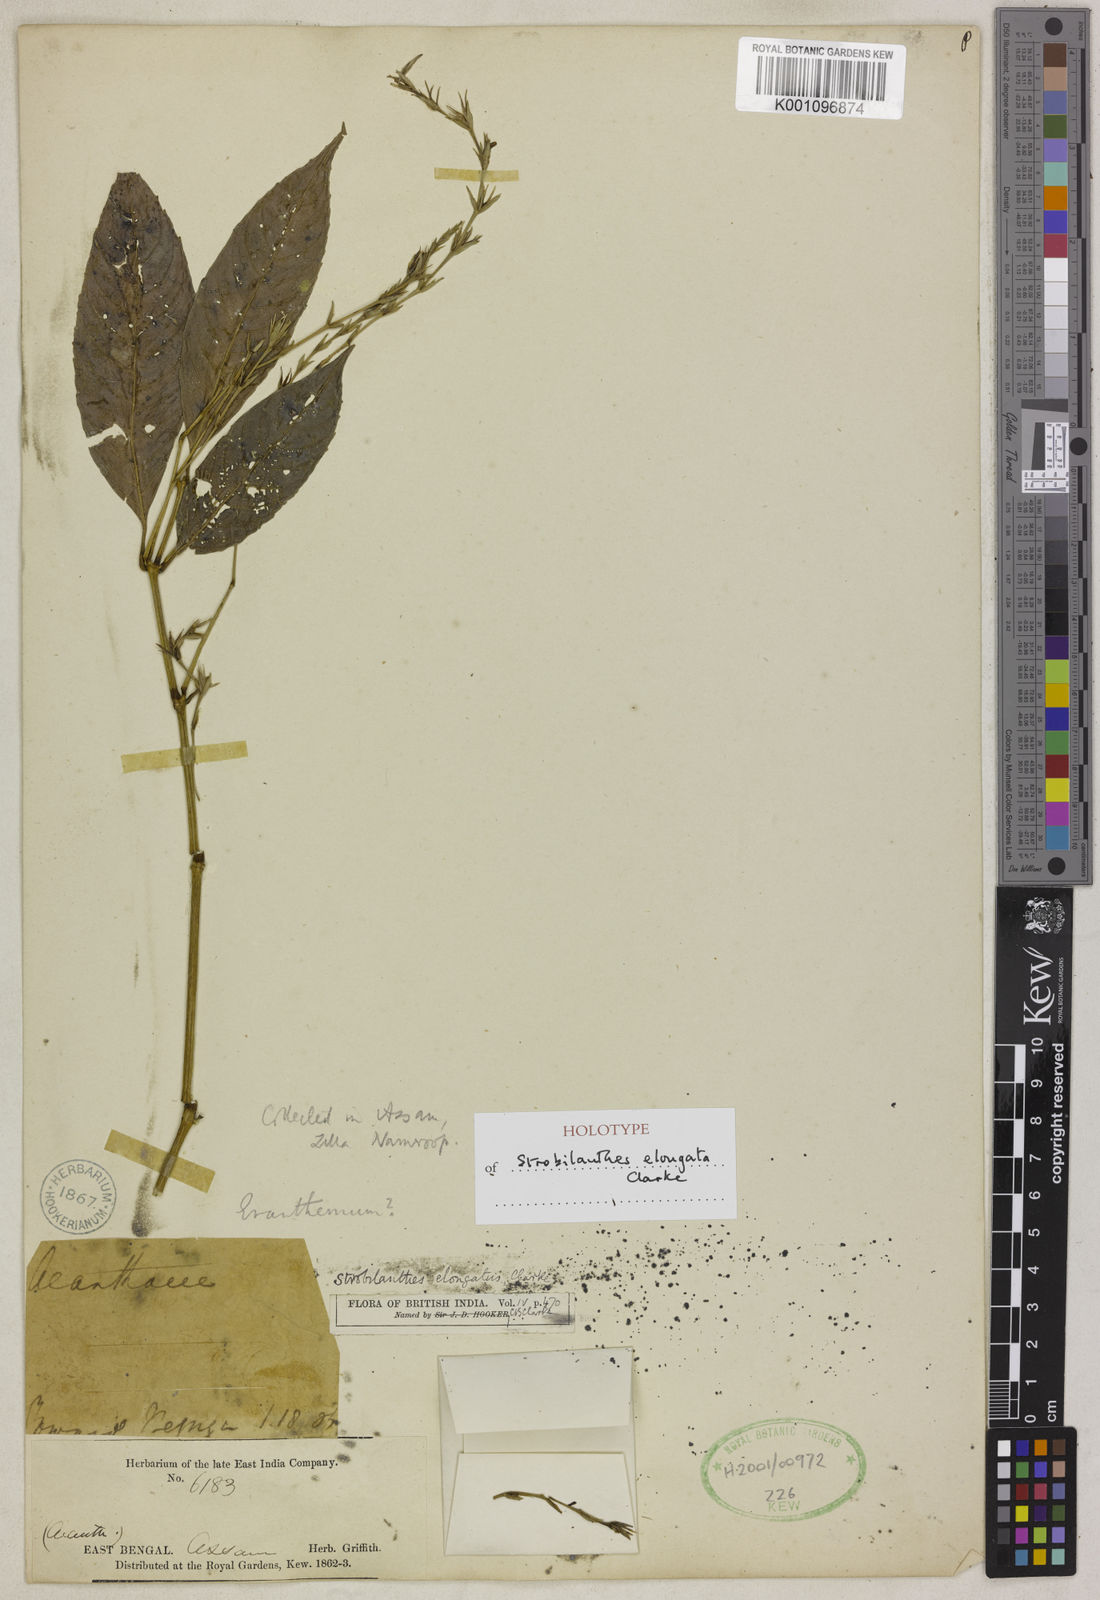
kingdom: Plantae
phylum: Tracheophyta
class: Magnoliopsida
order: Lamiales
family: Acanthaceae
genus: Strobilanthes
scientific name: Strobilanthes elongata
